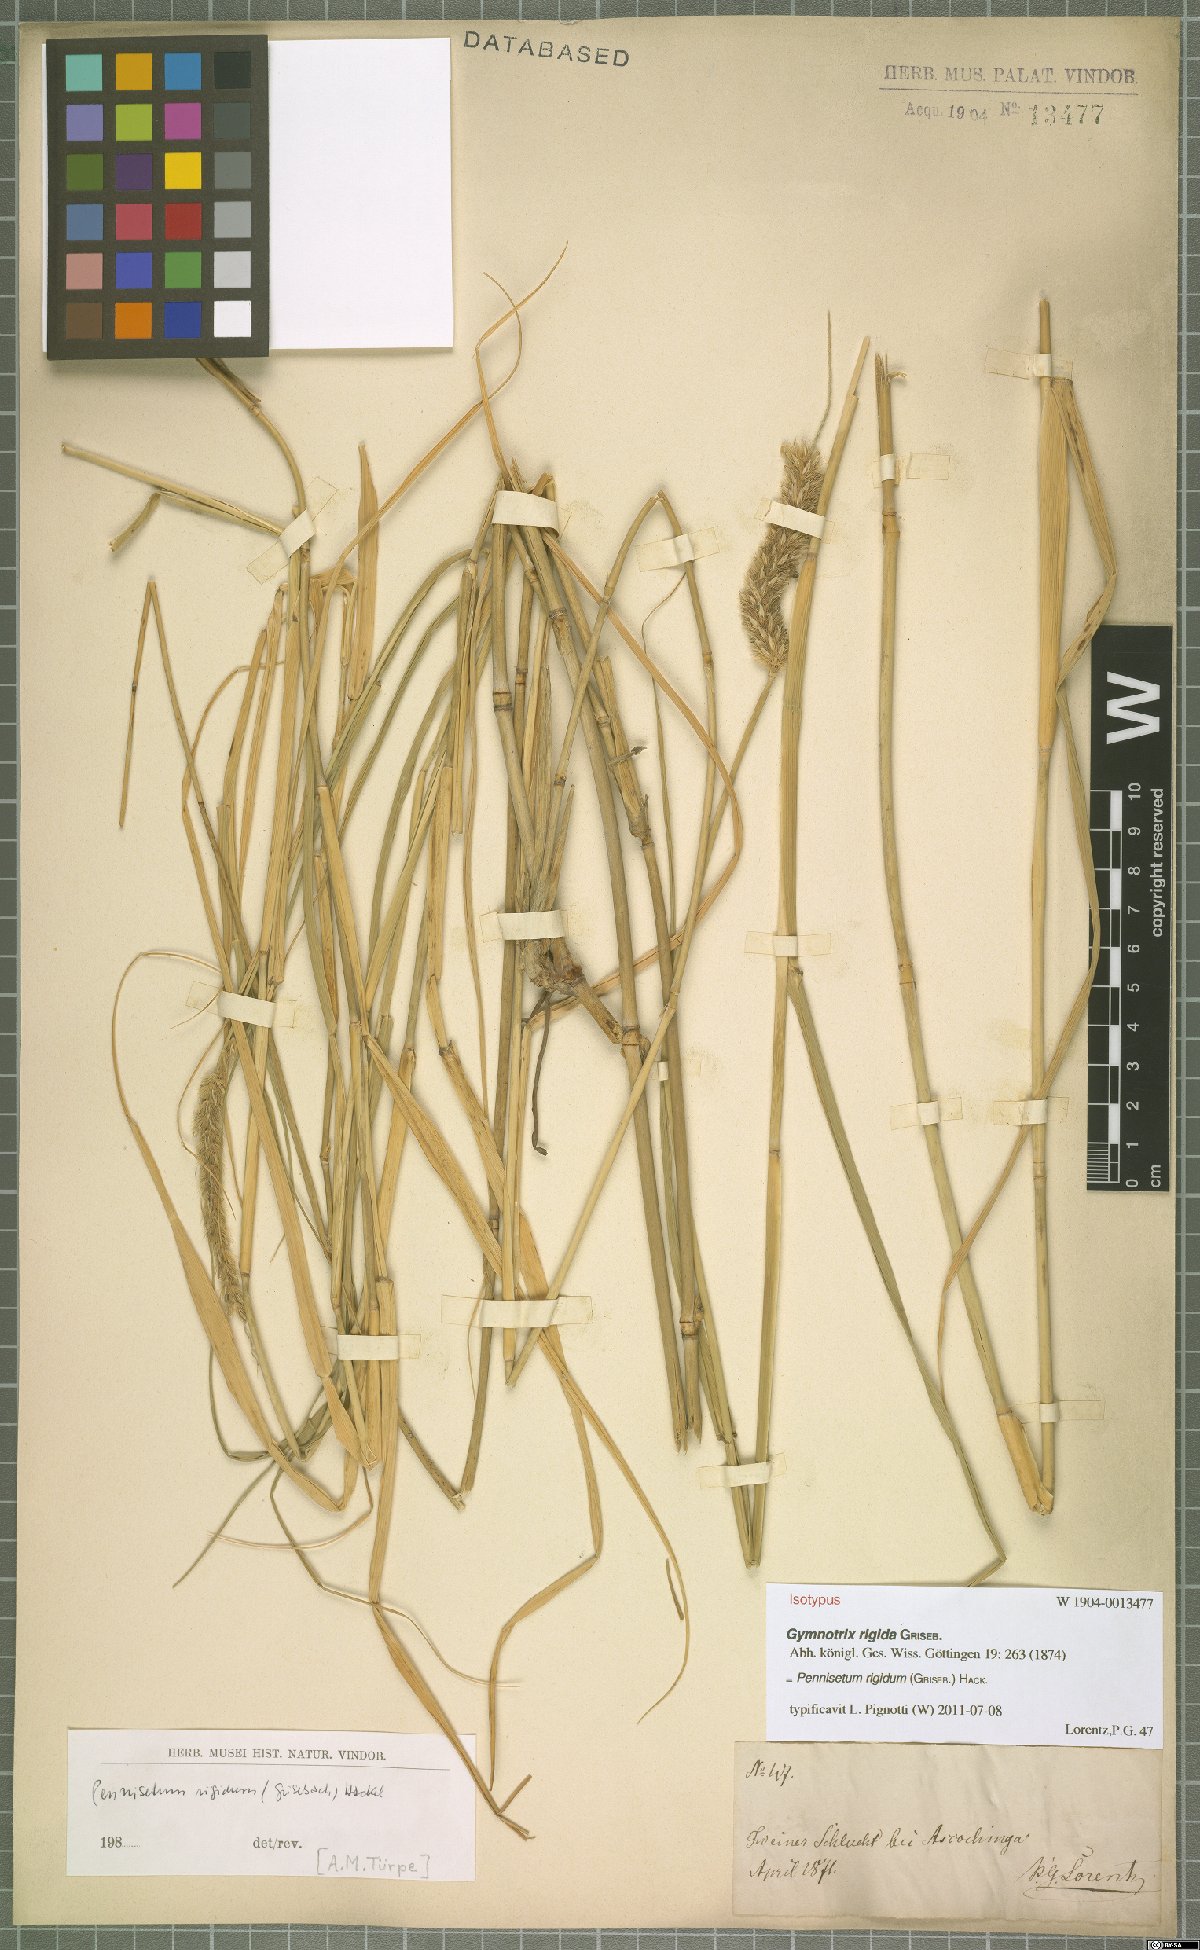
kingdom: Plantae
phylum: Tracheophyta
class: Liliopsida
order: Poales
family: Poaceae
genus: Cenchrus
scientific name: Cenchrus rigidus
